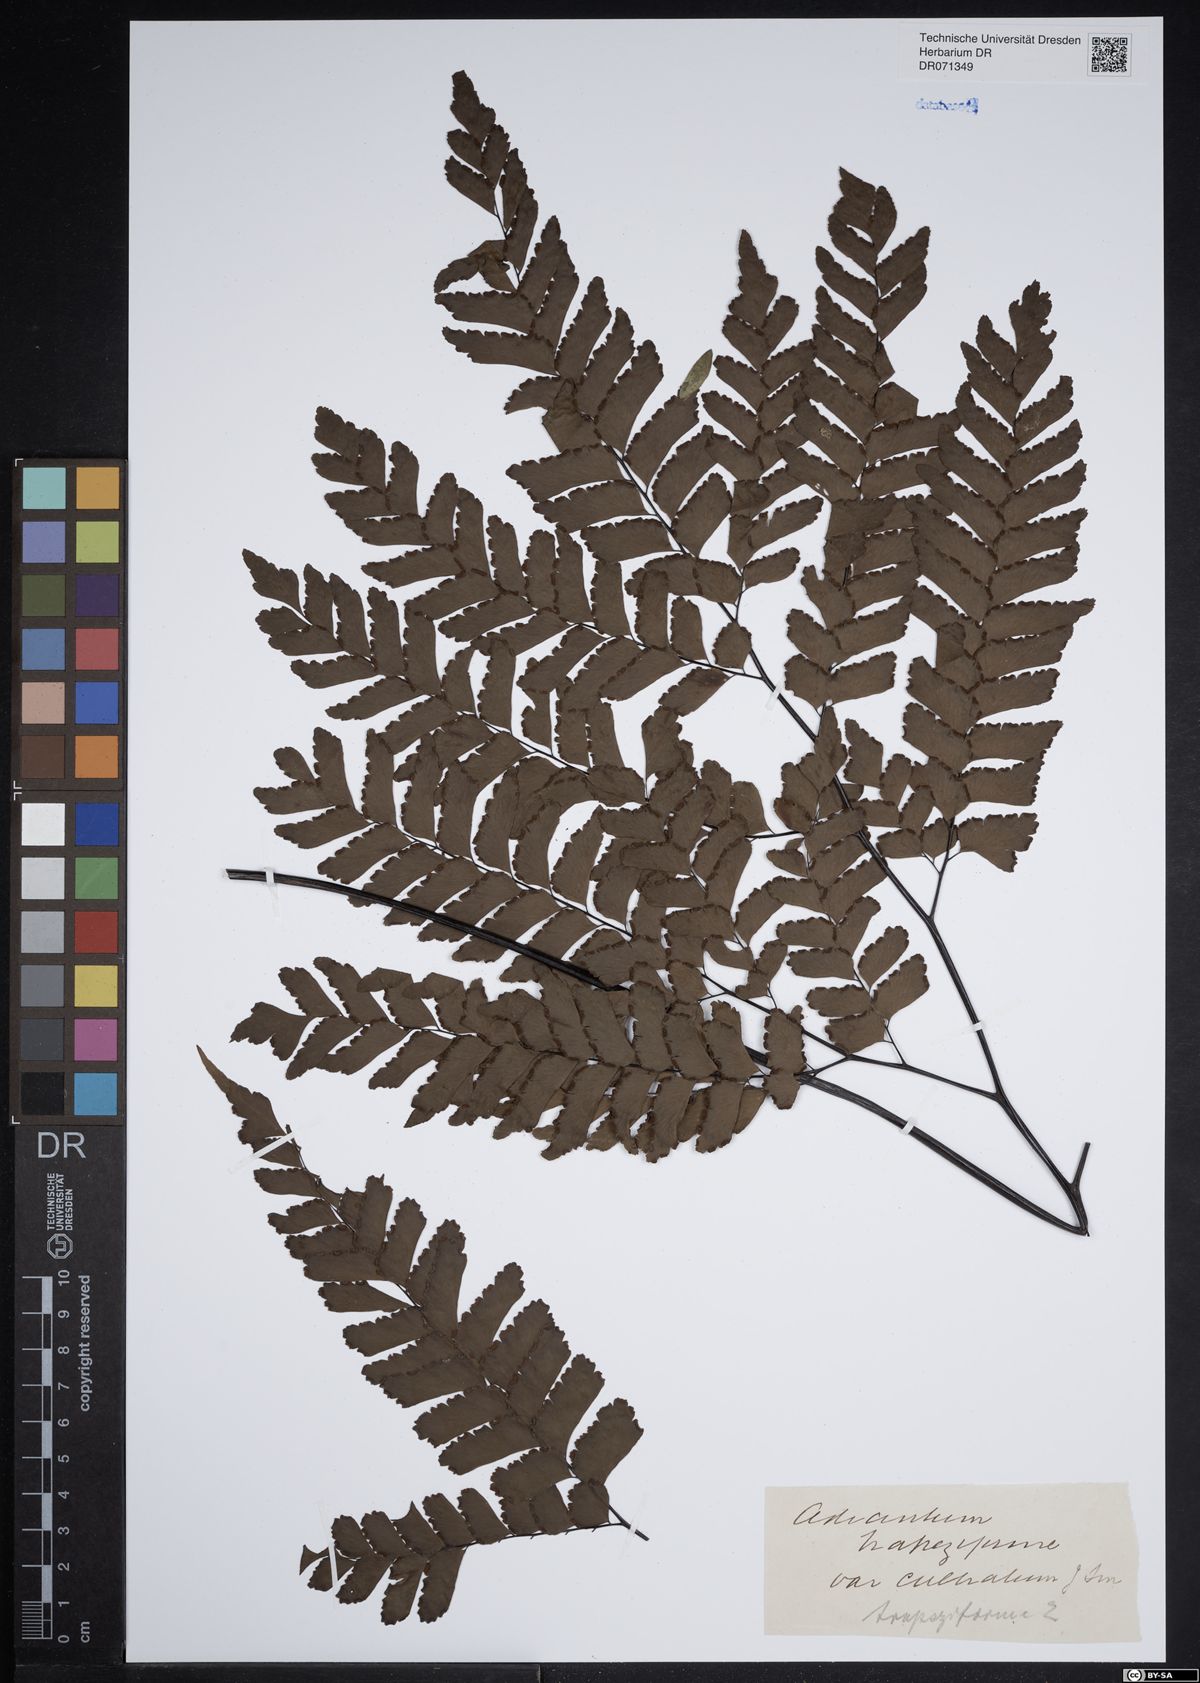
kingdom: Plantae
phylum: Tracheophyta
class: Polypodiopsida
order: Polypodiales
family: Pteridaceae
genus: Adiantum
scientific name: Adiantum trapeziforme
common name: Diamond maidenhair
